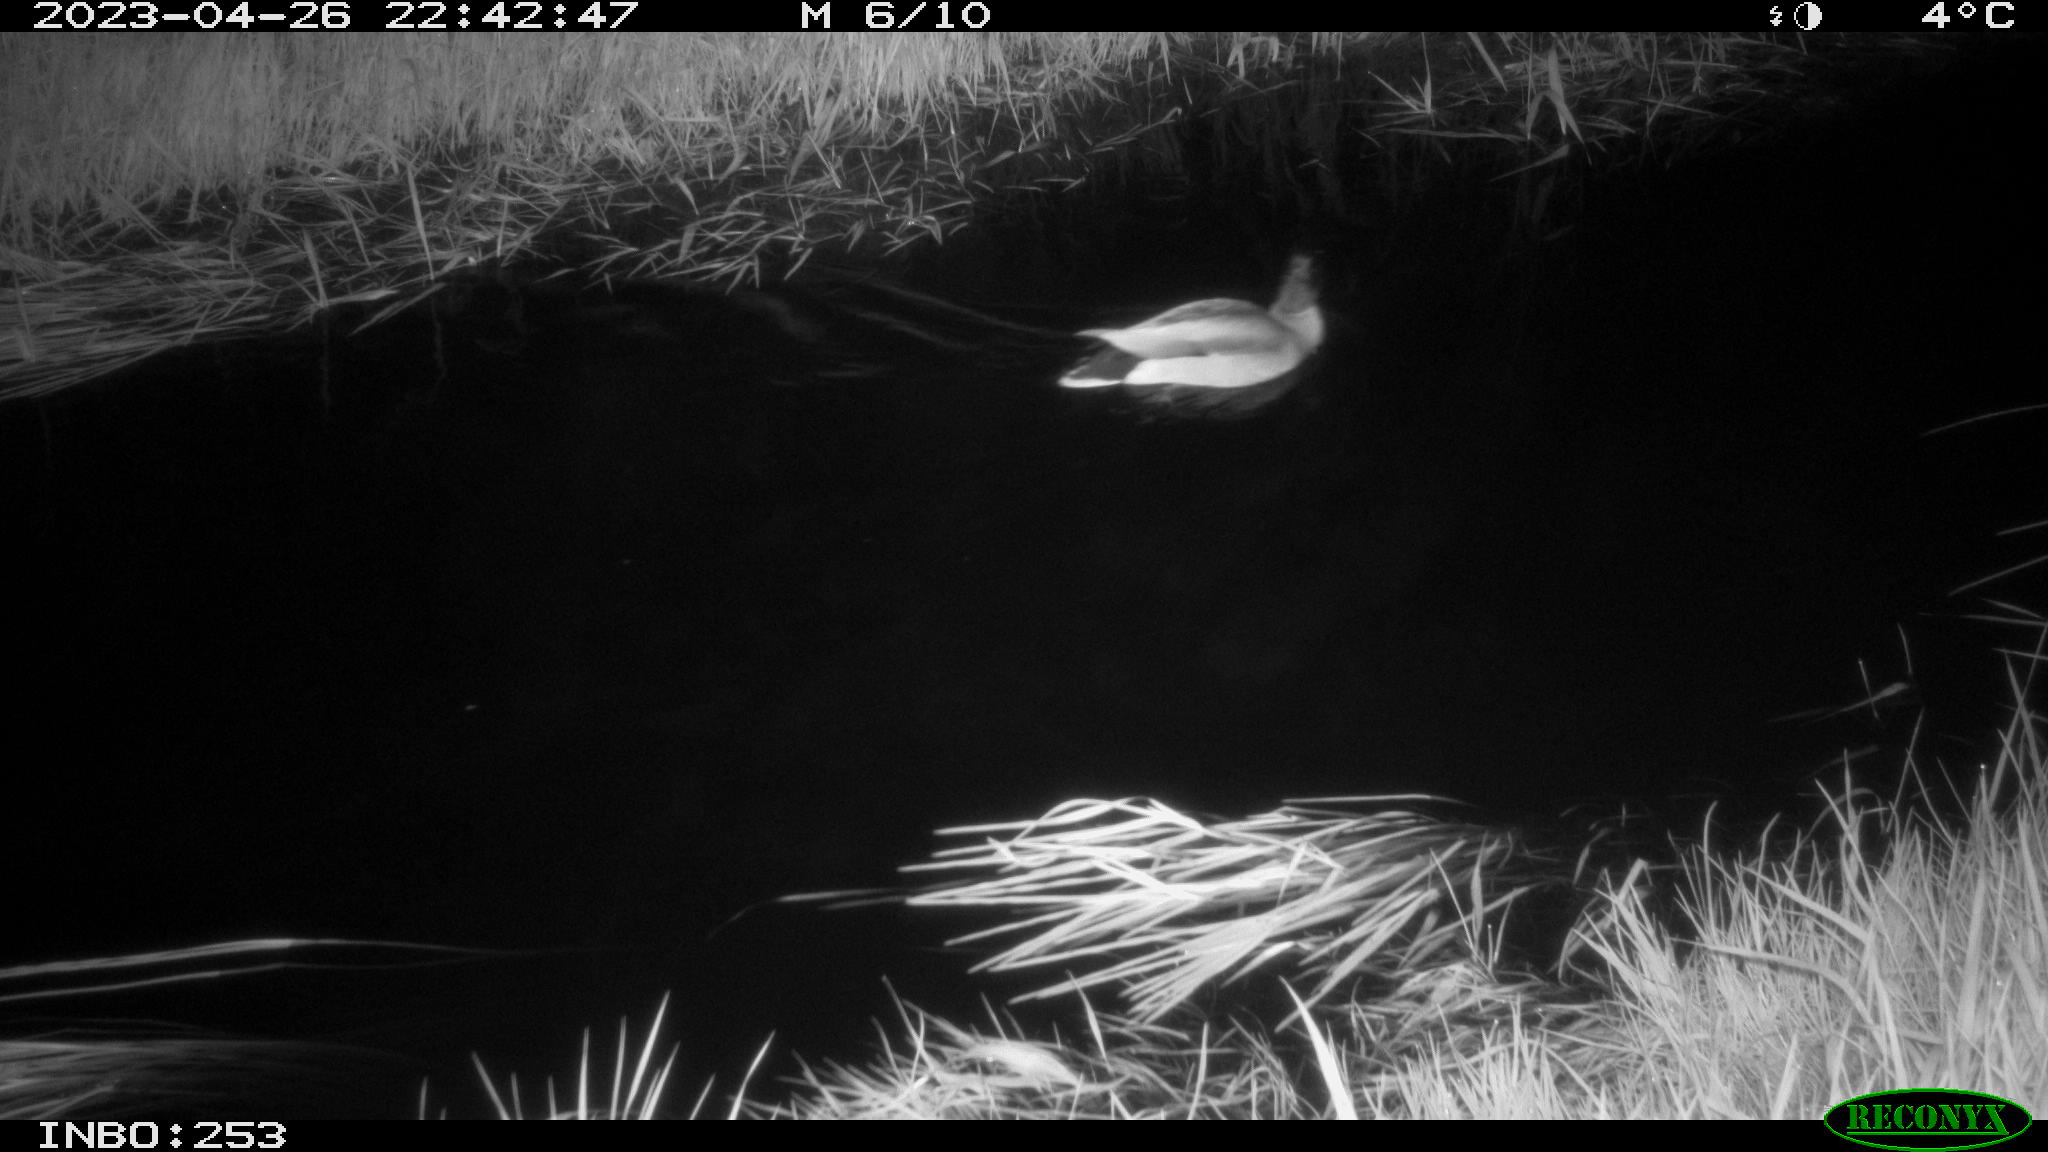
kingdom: Animalia
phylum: Chordata
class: Aves
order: Anseriformes
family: Anatidae
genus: Anas
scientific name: Anas
